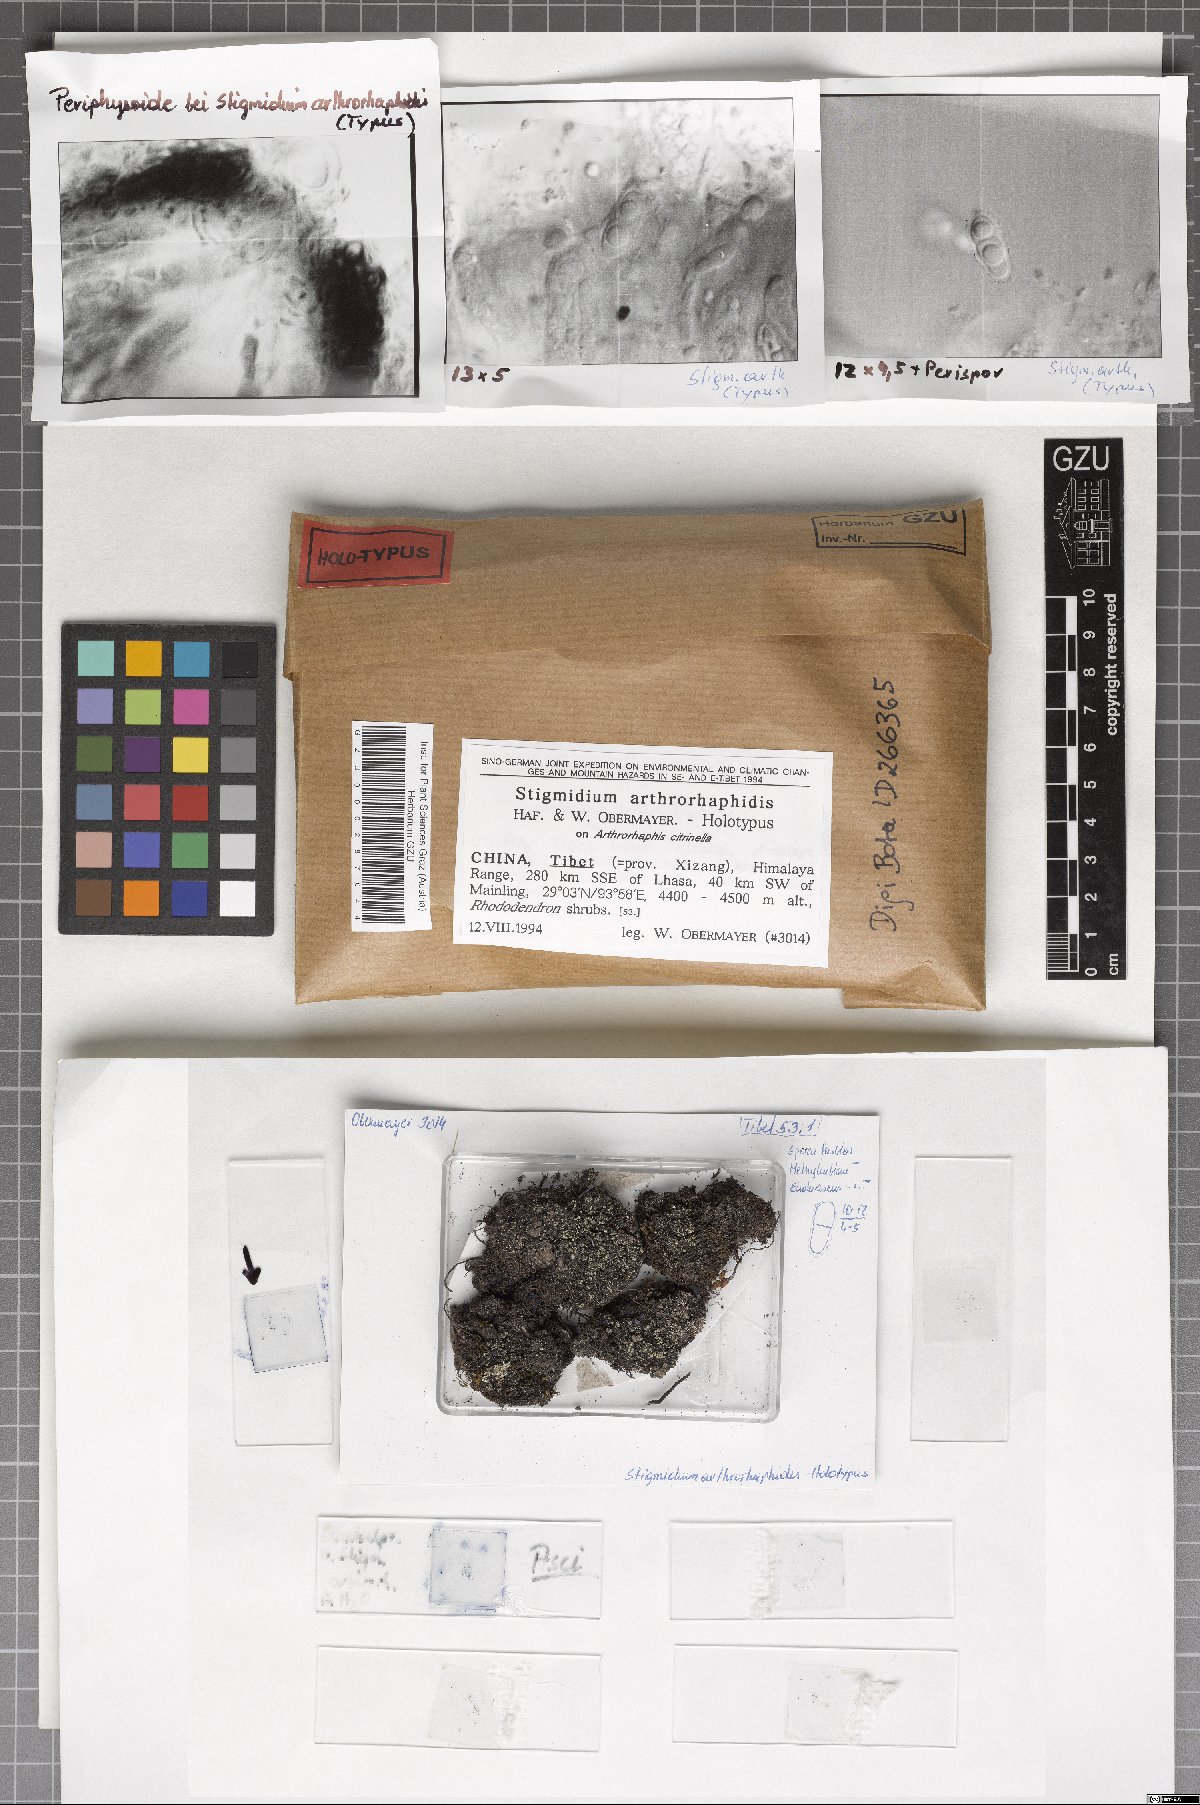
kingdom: Fungi
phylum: Ascomycota
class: Dothideomycetes
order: Mycosphaerellales
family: Mycosphaerellaceae
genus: Stigmidium
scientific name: Stigmidium arthrorhaphidis
